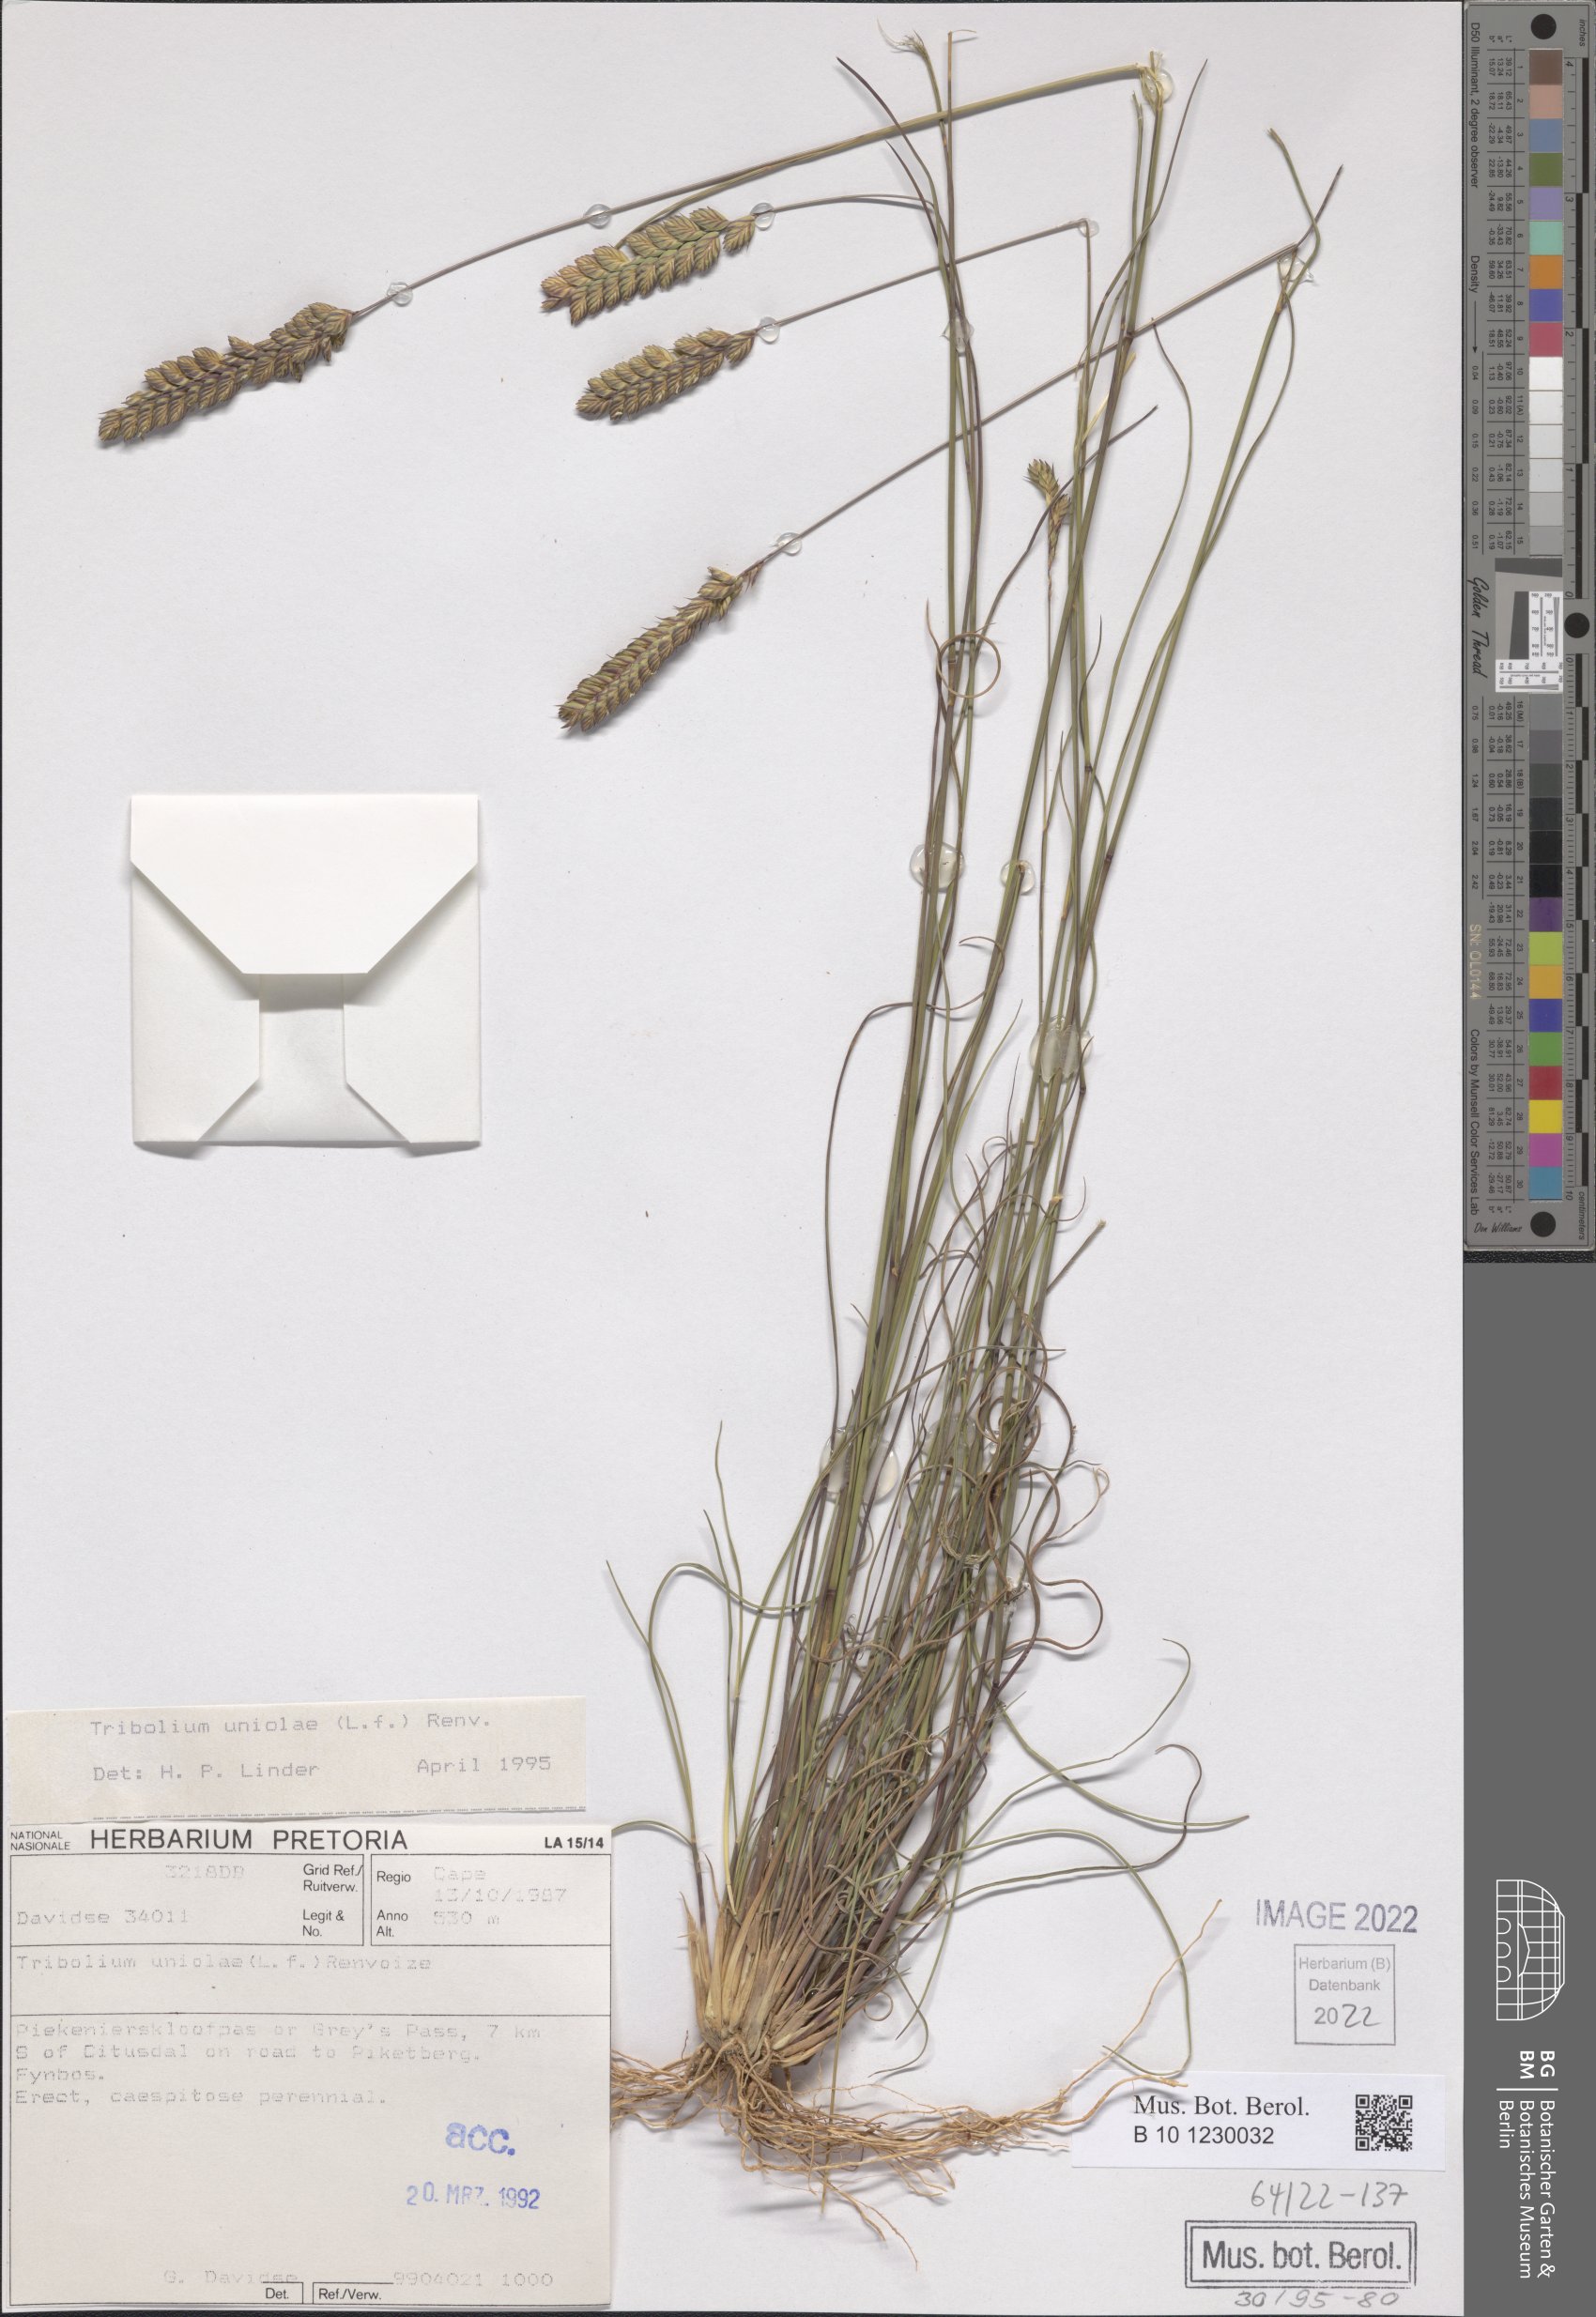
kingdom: Plantae
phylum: Tracheophyta
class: Liliopsida
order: Poales
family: Poaceae
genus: Tribolium
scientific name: Tribolium uniolae
